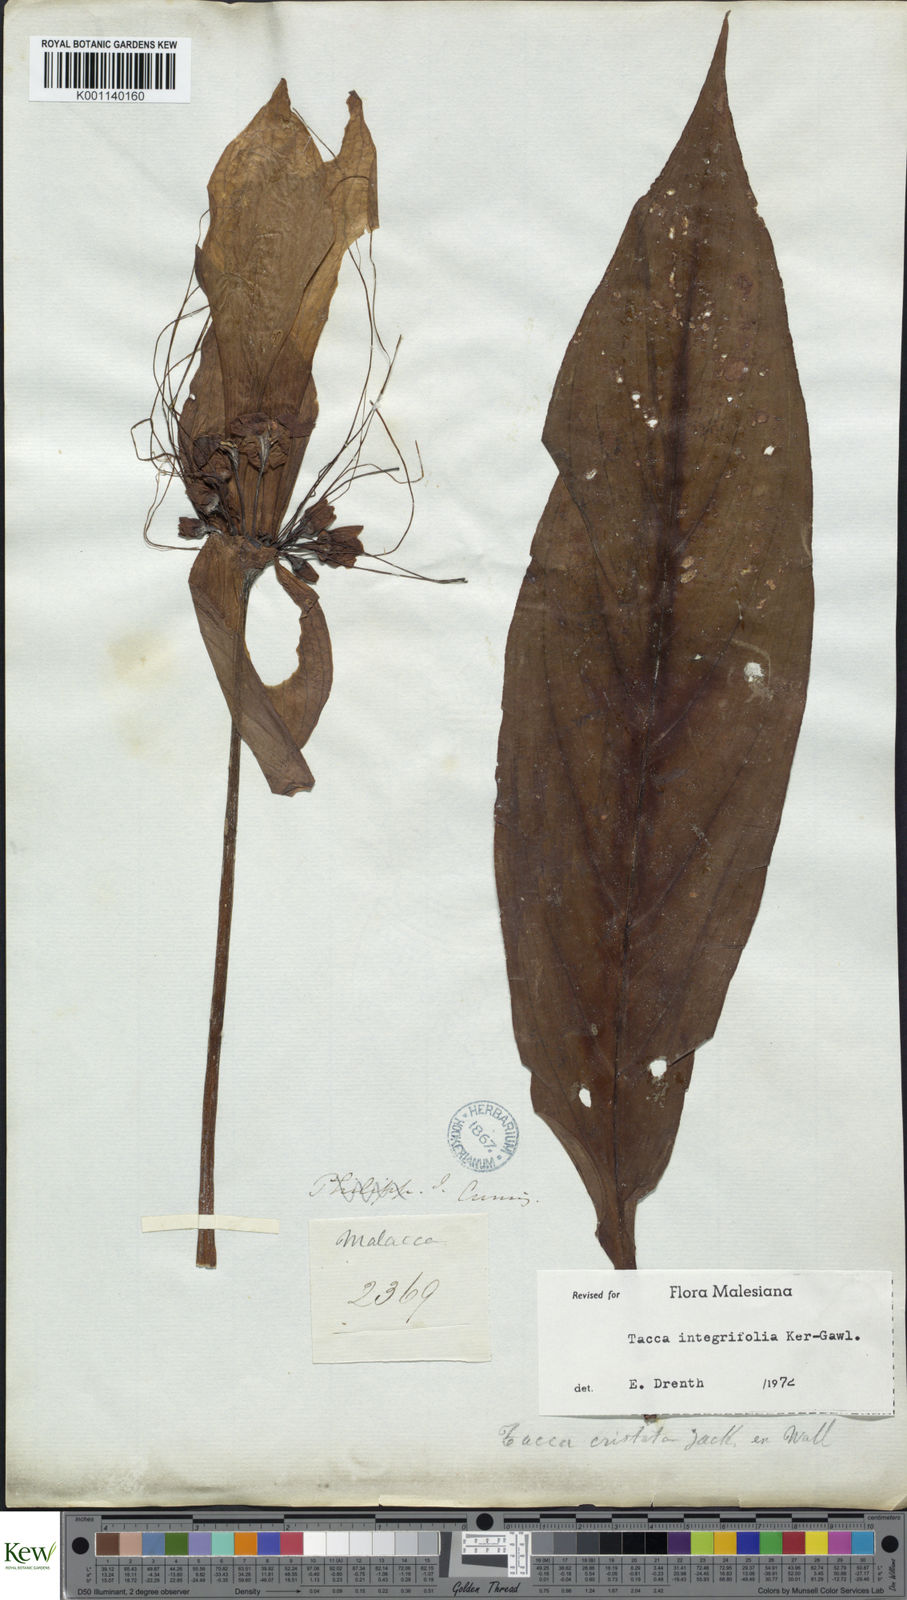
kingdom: Plantae
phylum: Tracheophyta
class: Liliopsida
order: Dioscoreales
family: Dioscoreaceae
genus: Tacca
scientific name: Tacca integrifolia
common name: Batplant
